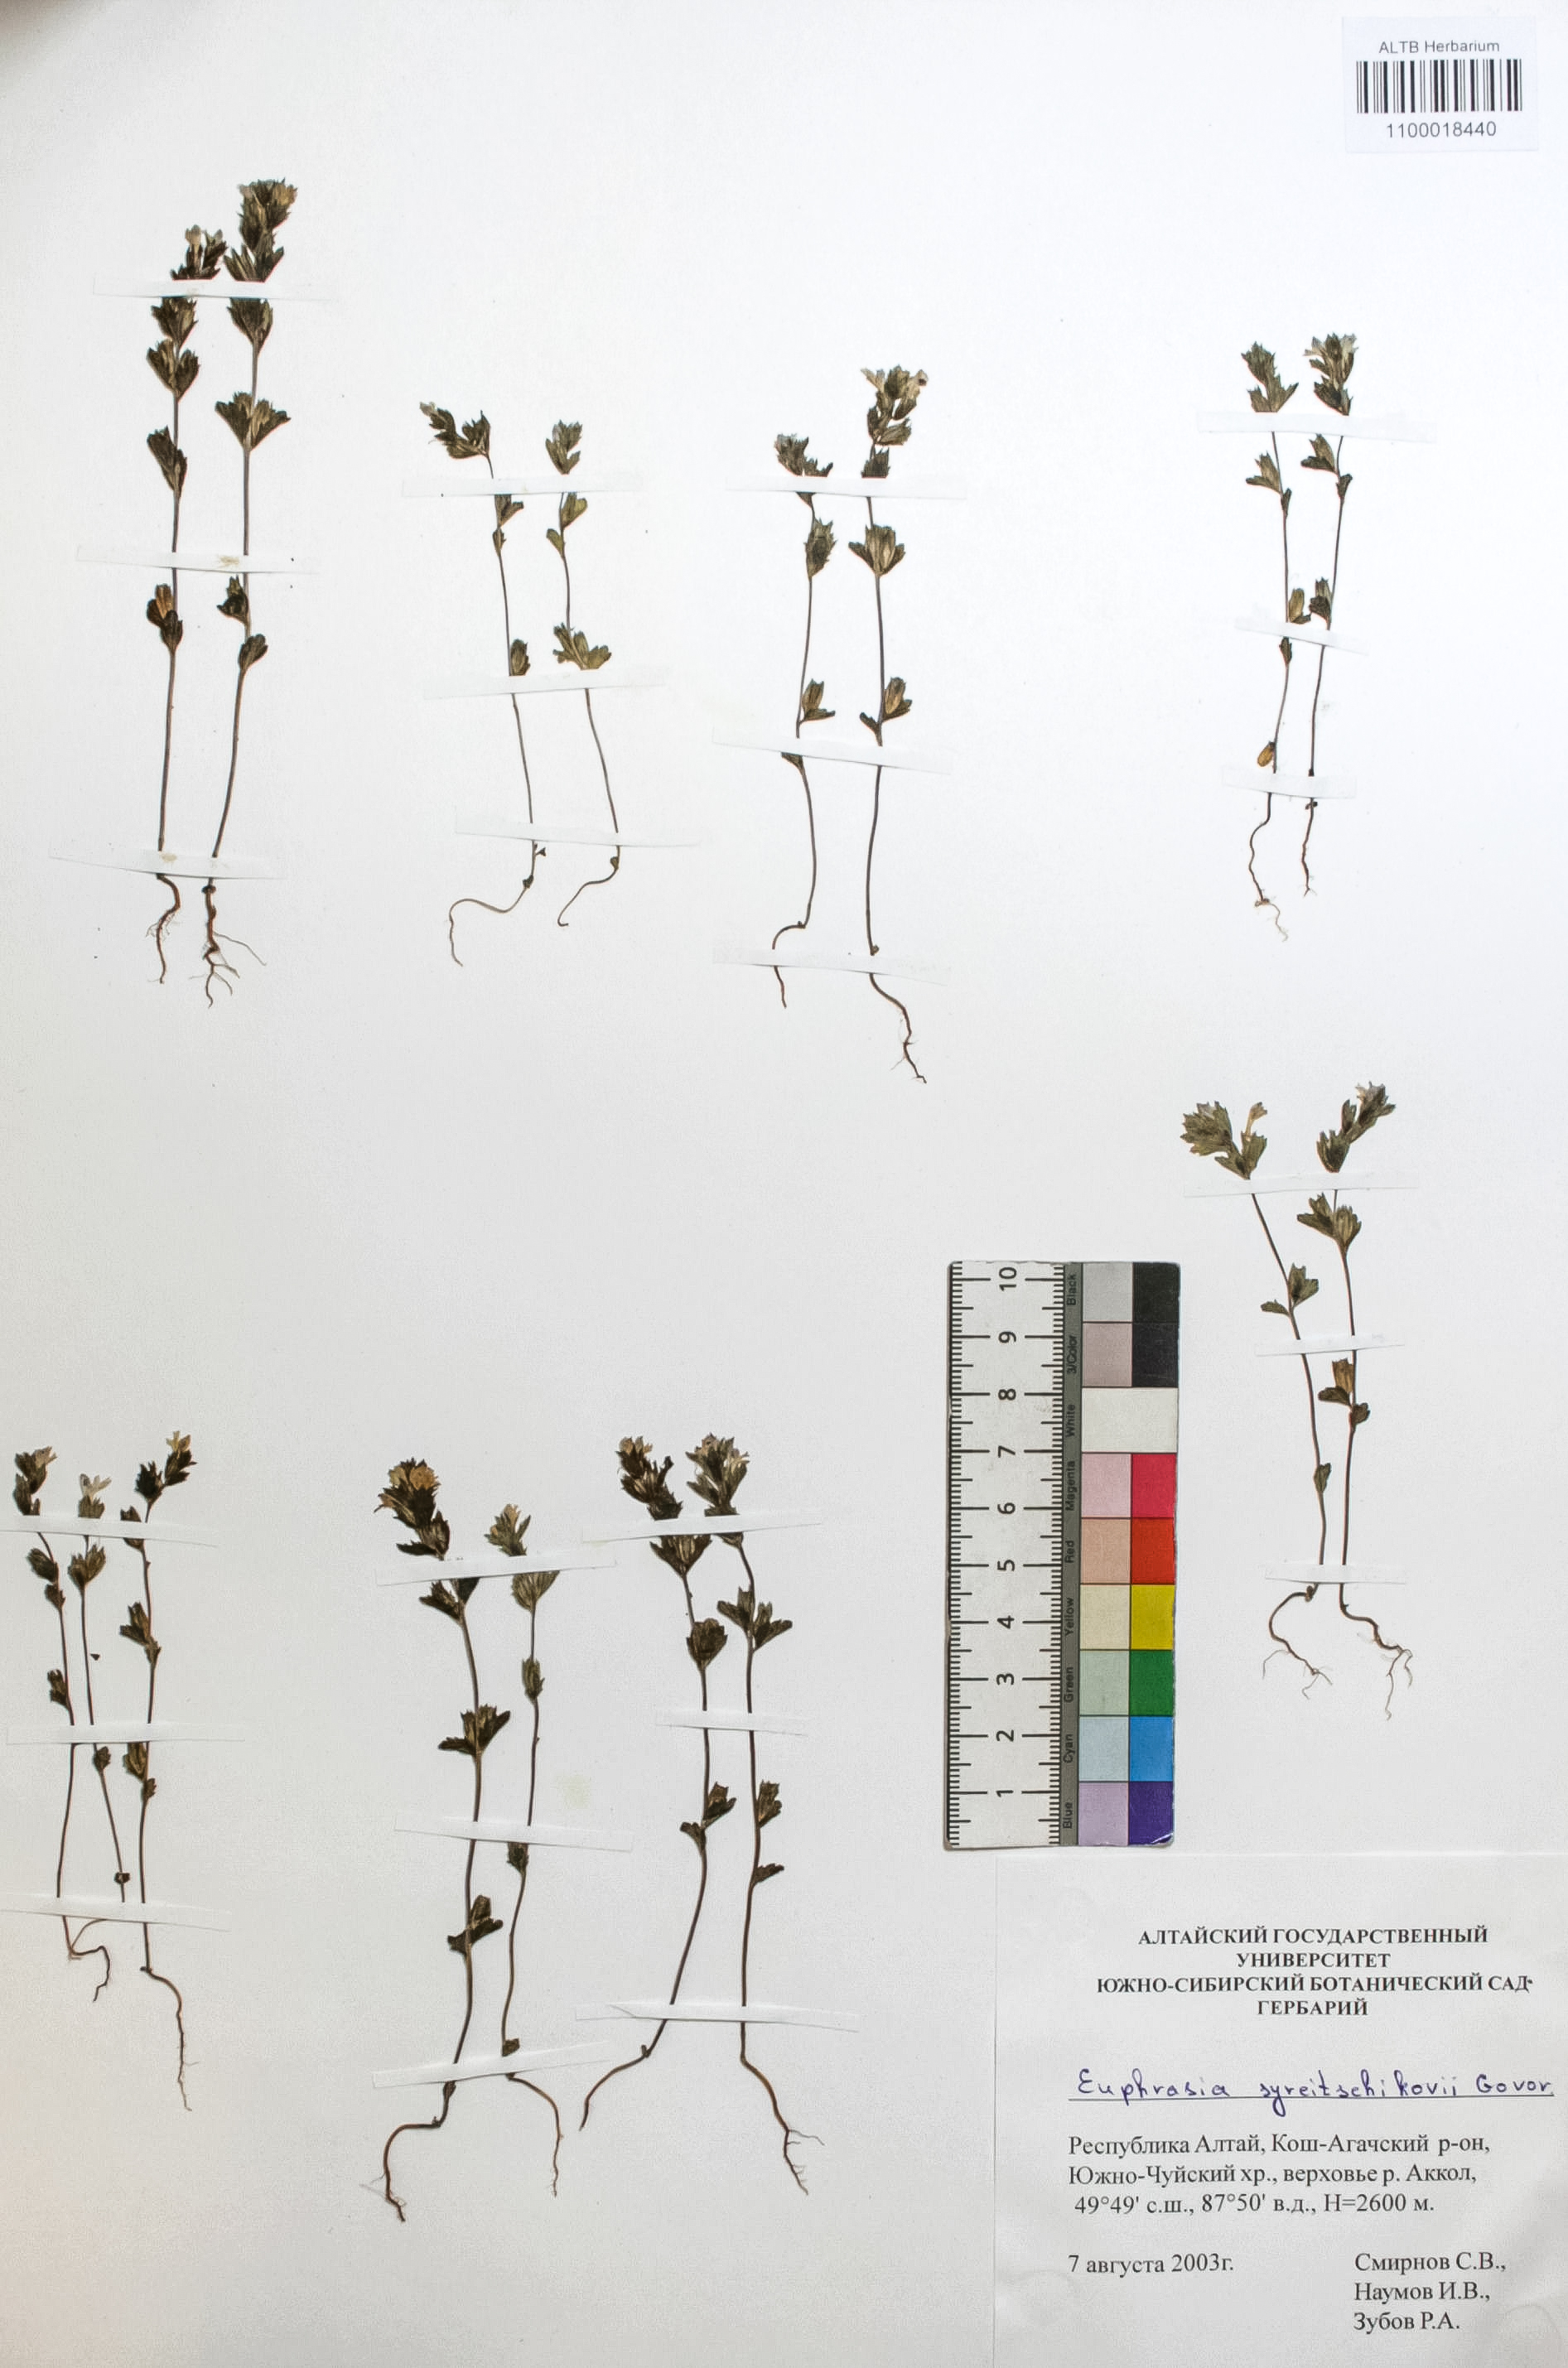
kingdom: Plantae
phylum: Tracheophyta
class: Magnoliopsida
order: Lamiales
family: Orobanchaceae
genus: Euphrasia
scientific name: Euphrasia syreitschikovii
